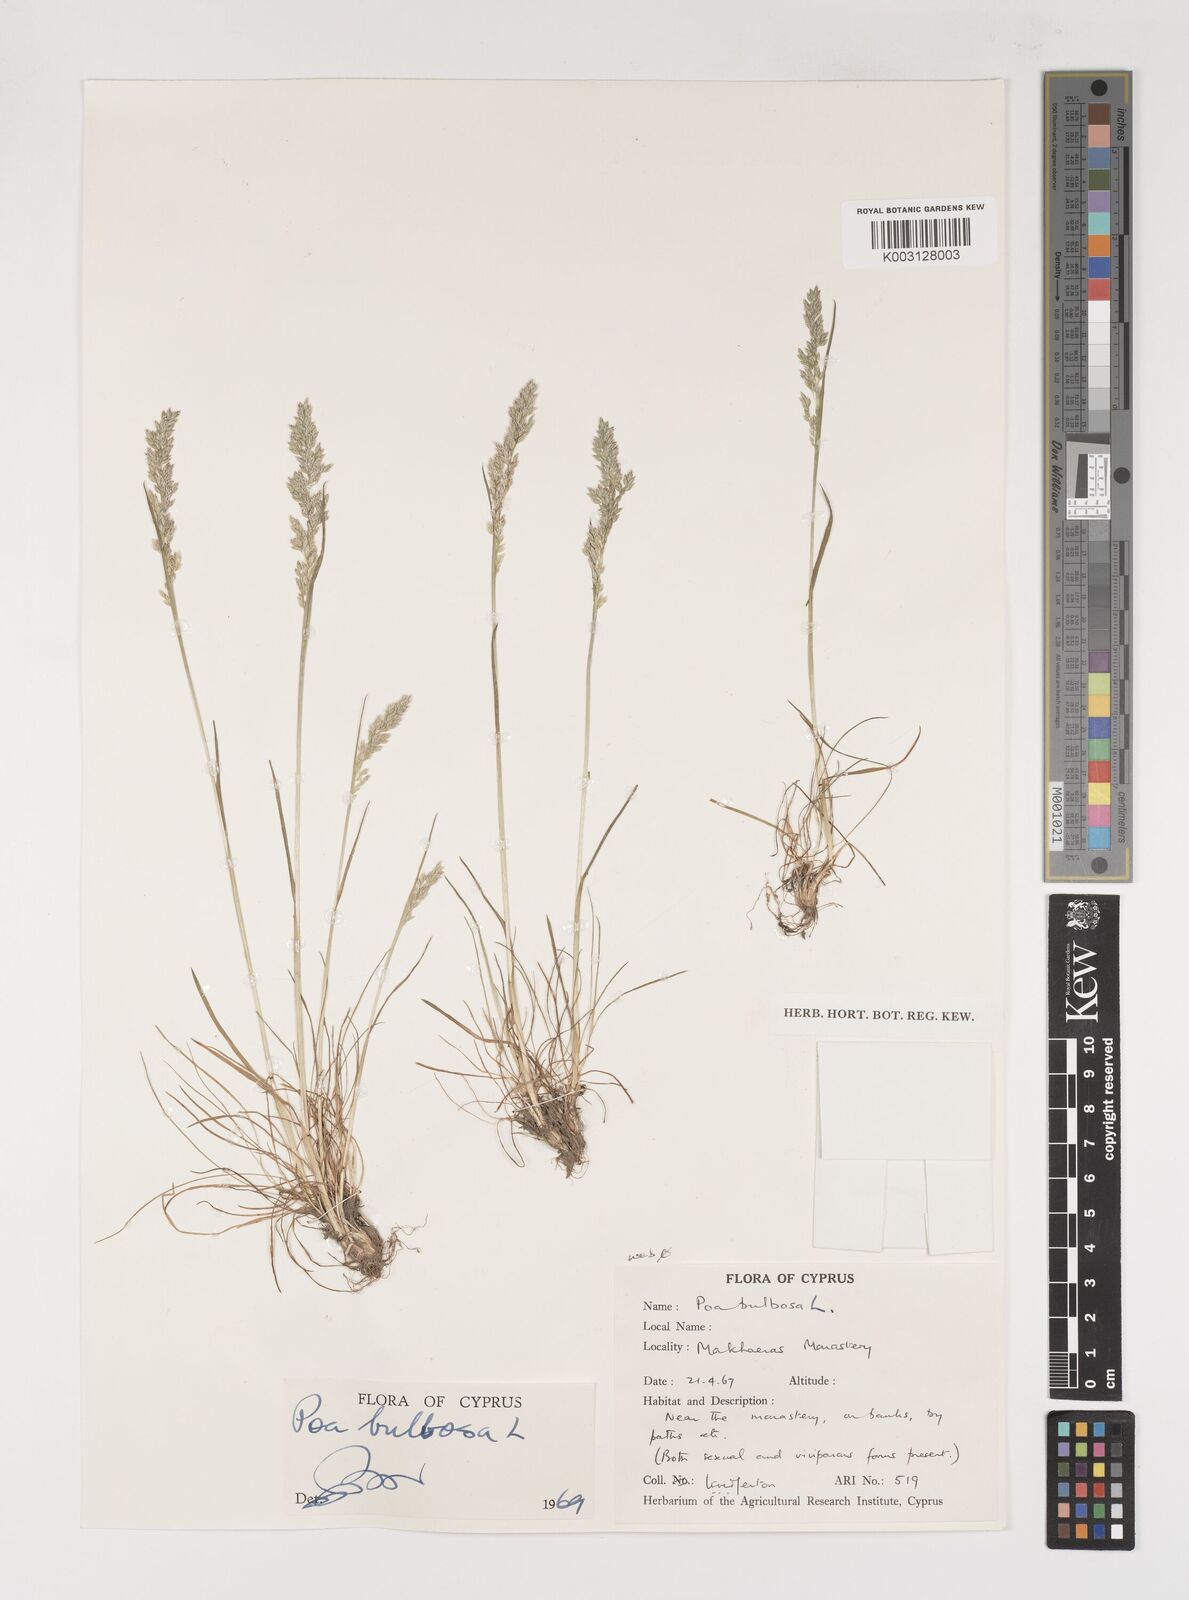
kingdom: Plantae
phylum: Tracheophyta
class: Liliopsida
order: Poales
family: Poaceae
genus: Poa
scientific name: Poa bulbosa
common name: Bulbous bluegrass
